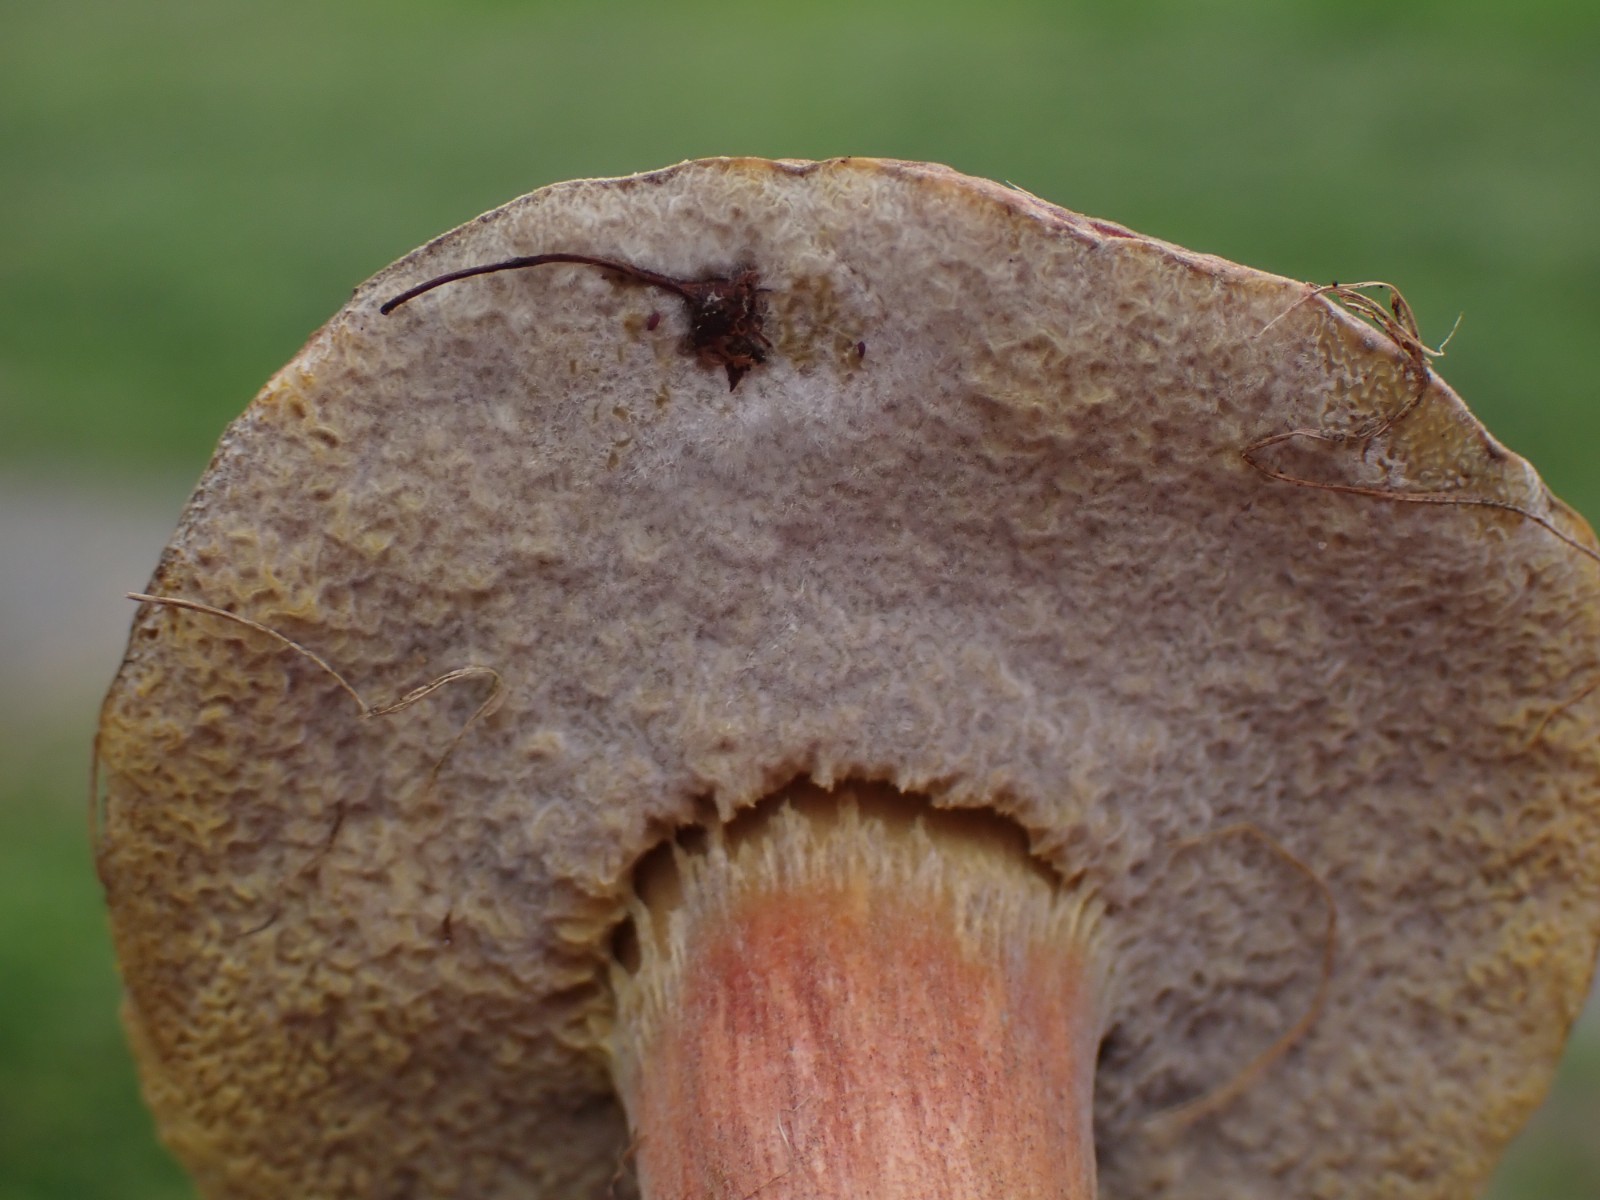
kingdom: Fungi
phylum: Ascomycota
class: Sordariomycetes
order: Hypocreales
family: Hypocreaceae
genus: Hypomyces
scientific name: Hypomyces microspermus
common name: dværgrørhat-snylteskorpe
